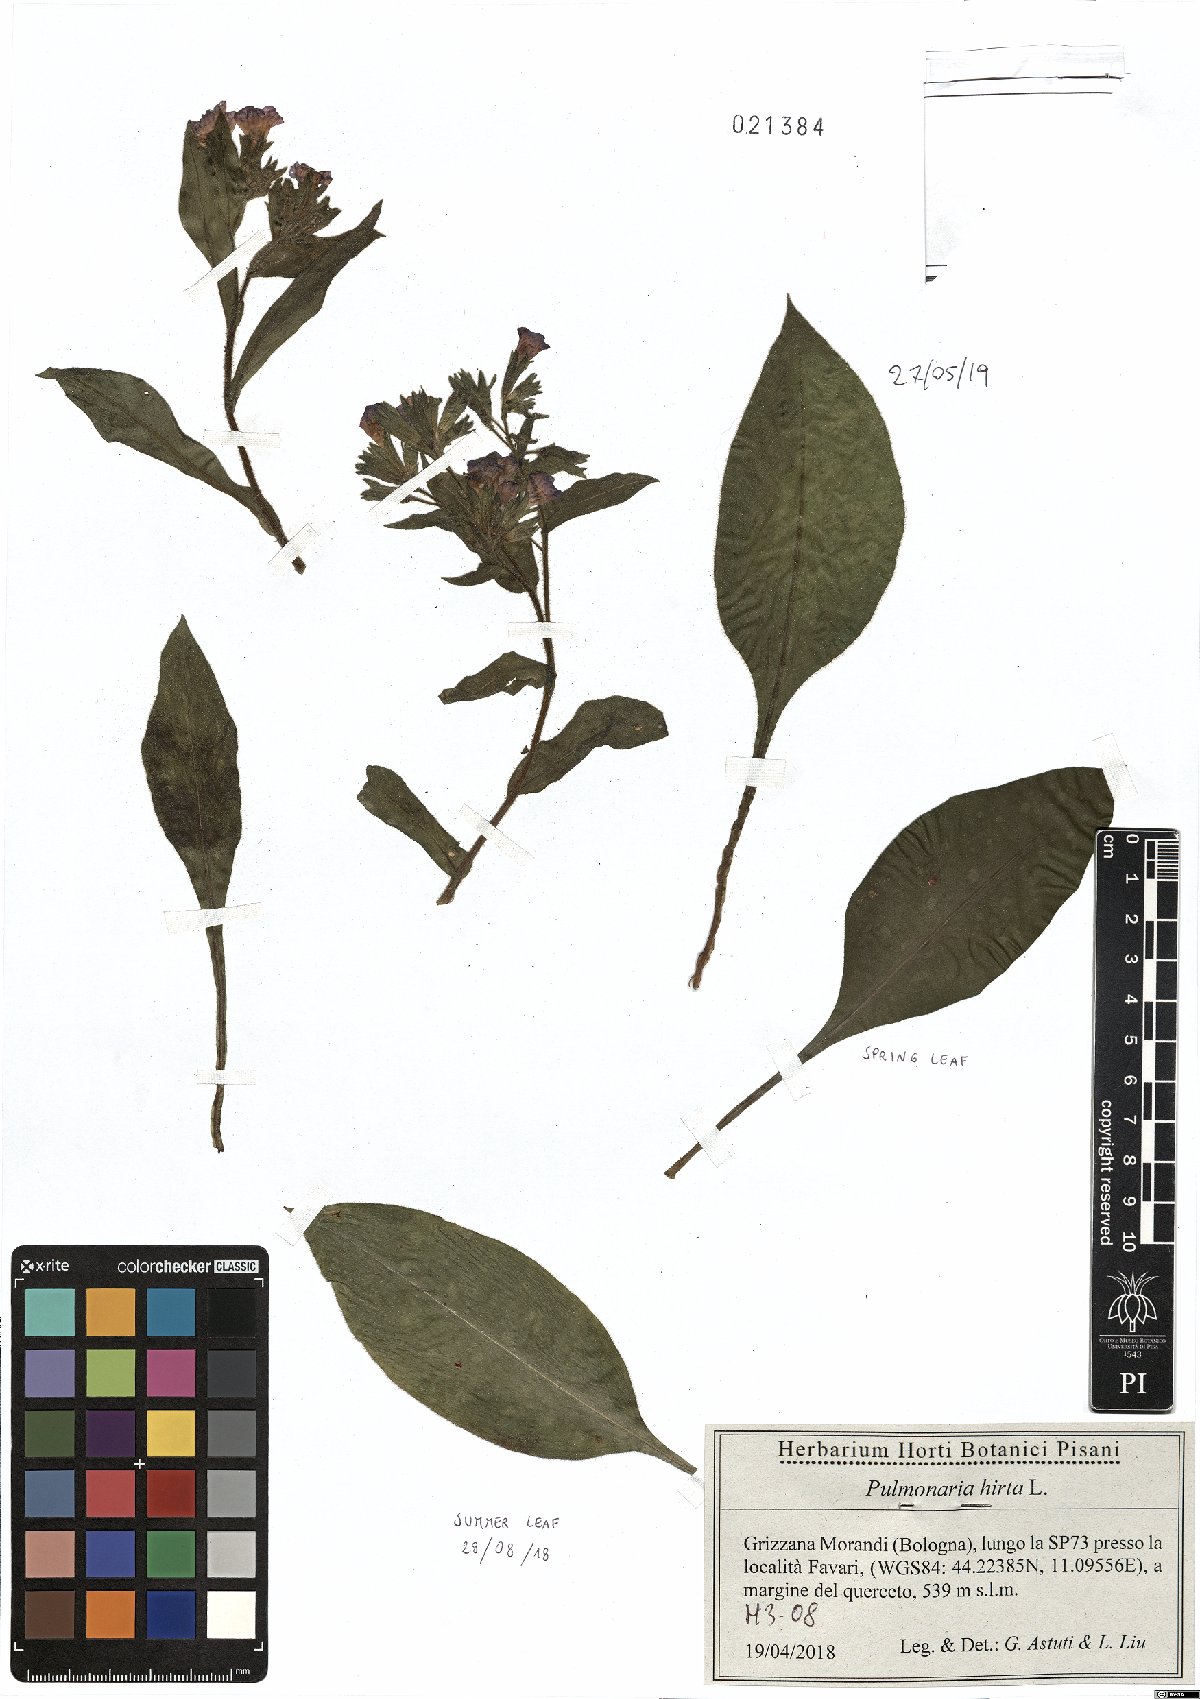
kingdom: Plantae
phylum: Tracheophyta
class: Magnoliopsida
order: Boraginales
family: Boraginaceae
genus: Pulmonaria
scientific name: Pulmonaria hirta
